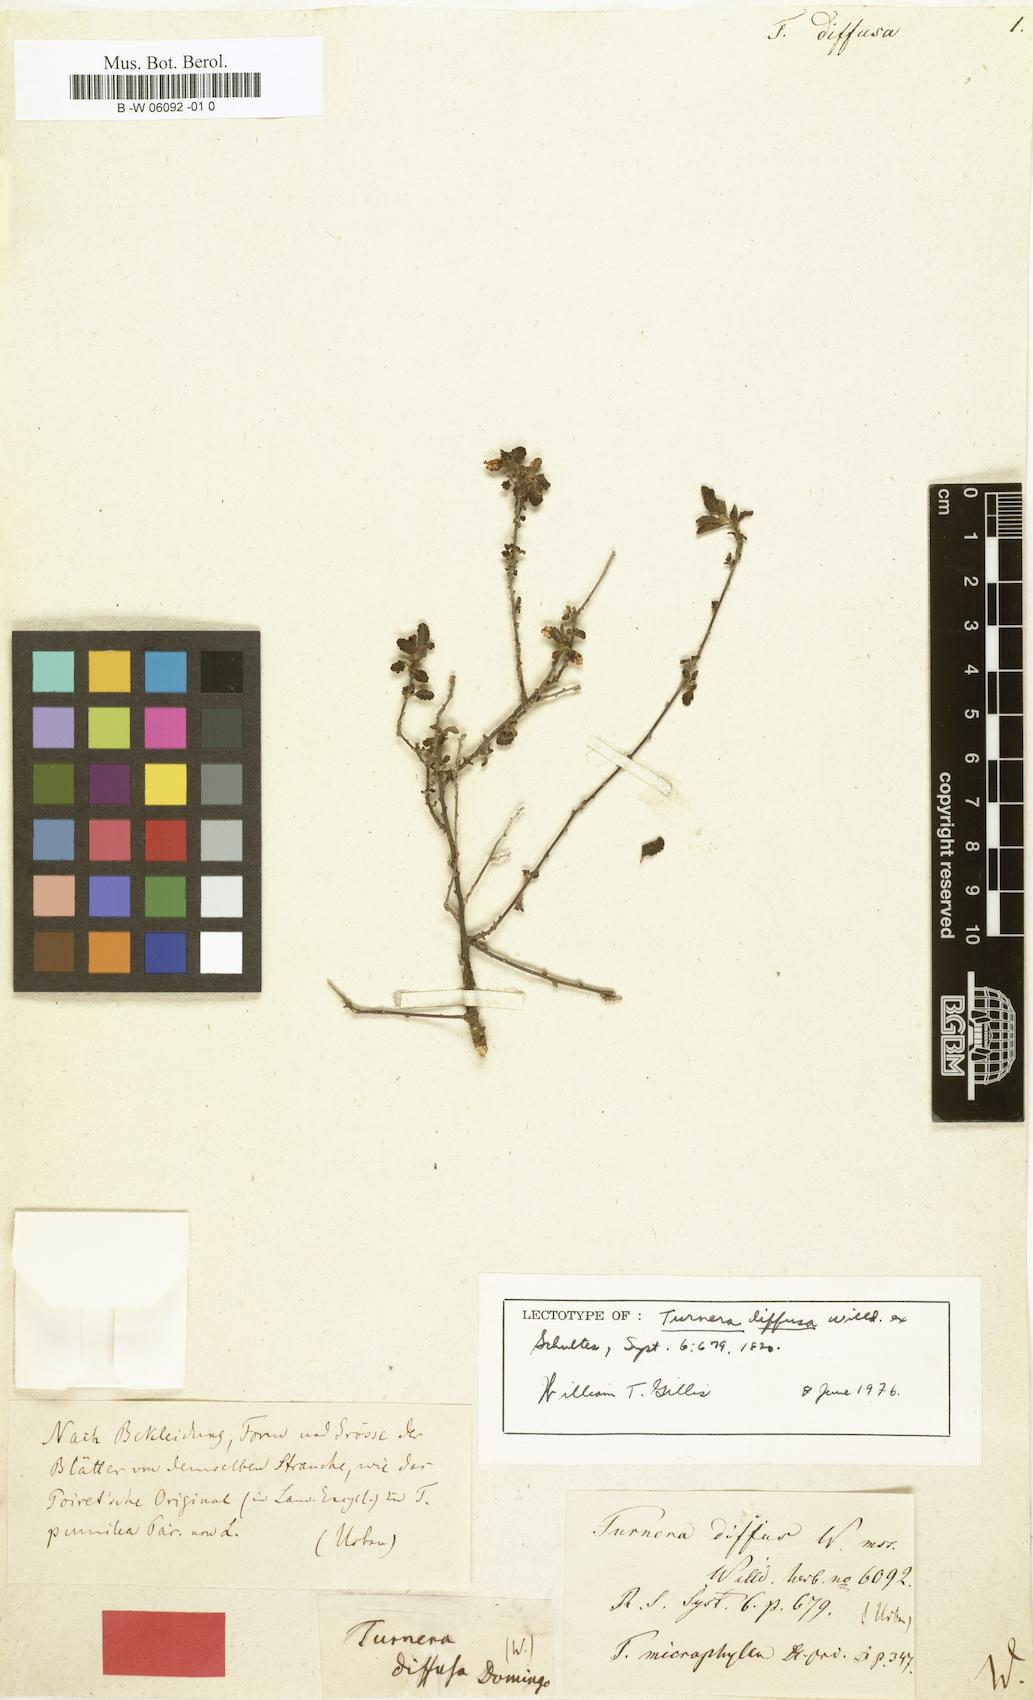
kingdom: Plantae
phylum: Tracheophyta
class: Magnoliopsida
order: Malpighiales
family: Turneraceae
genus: Turnera
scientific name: Turnera diffusa
